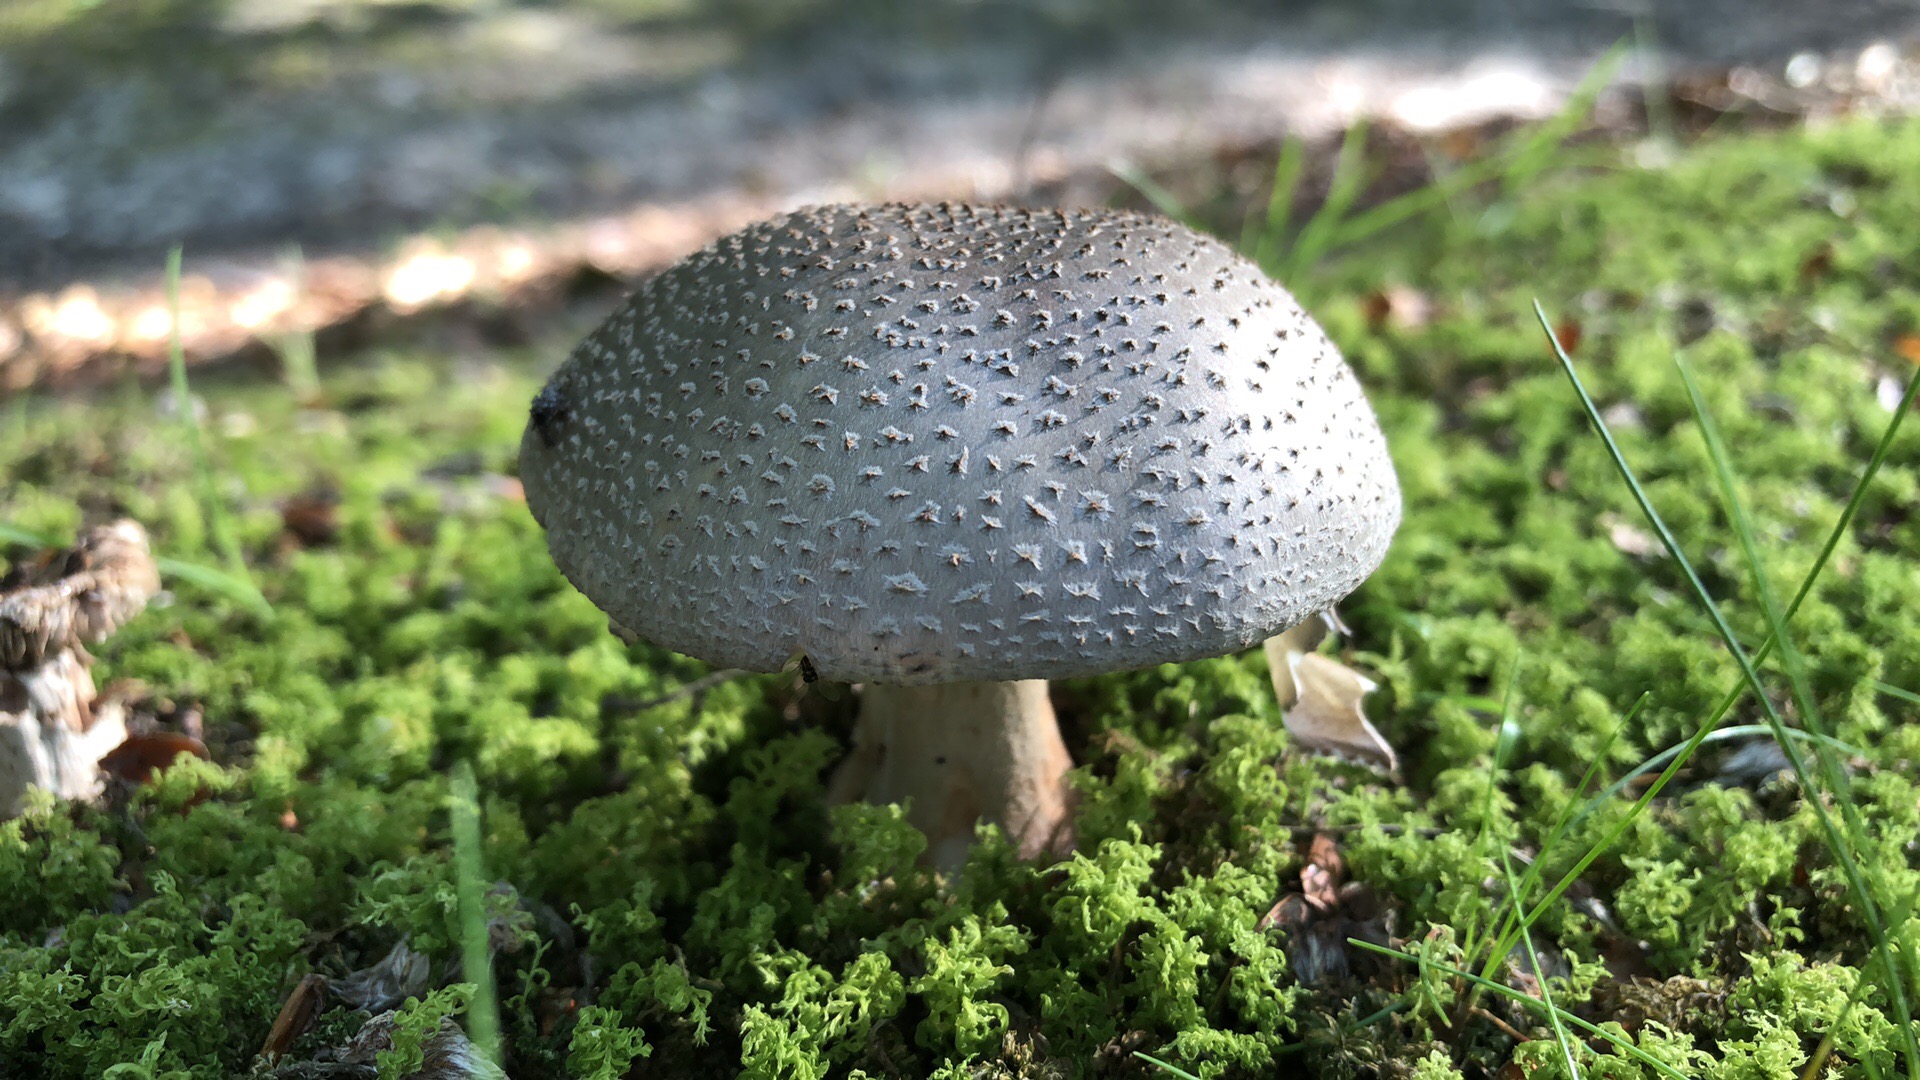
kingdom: Fungi
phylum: Basidiomycota
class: Agaricomycetes
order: Agaricales
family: Amanitaceae
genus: Amanita
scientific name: Amanita rubescens
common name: rødmende fluesvamp
